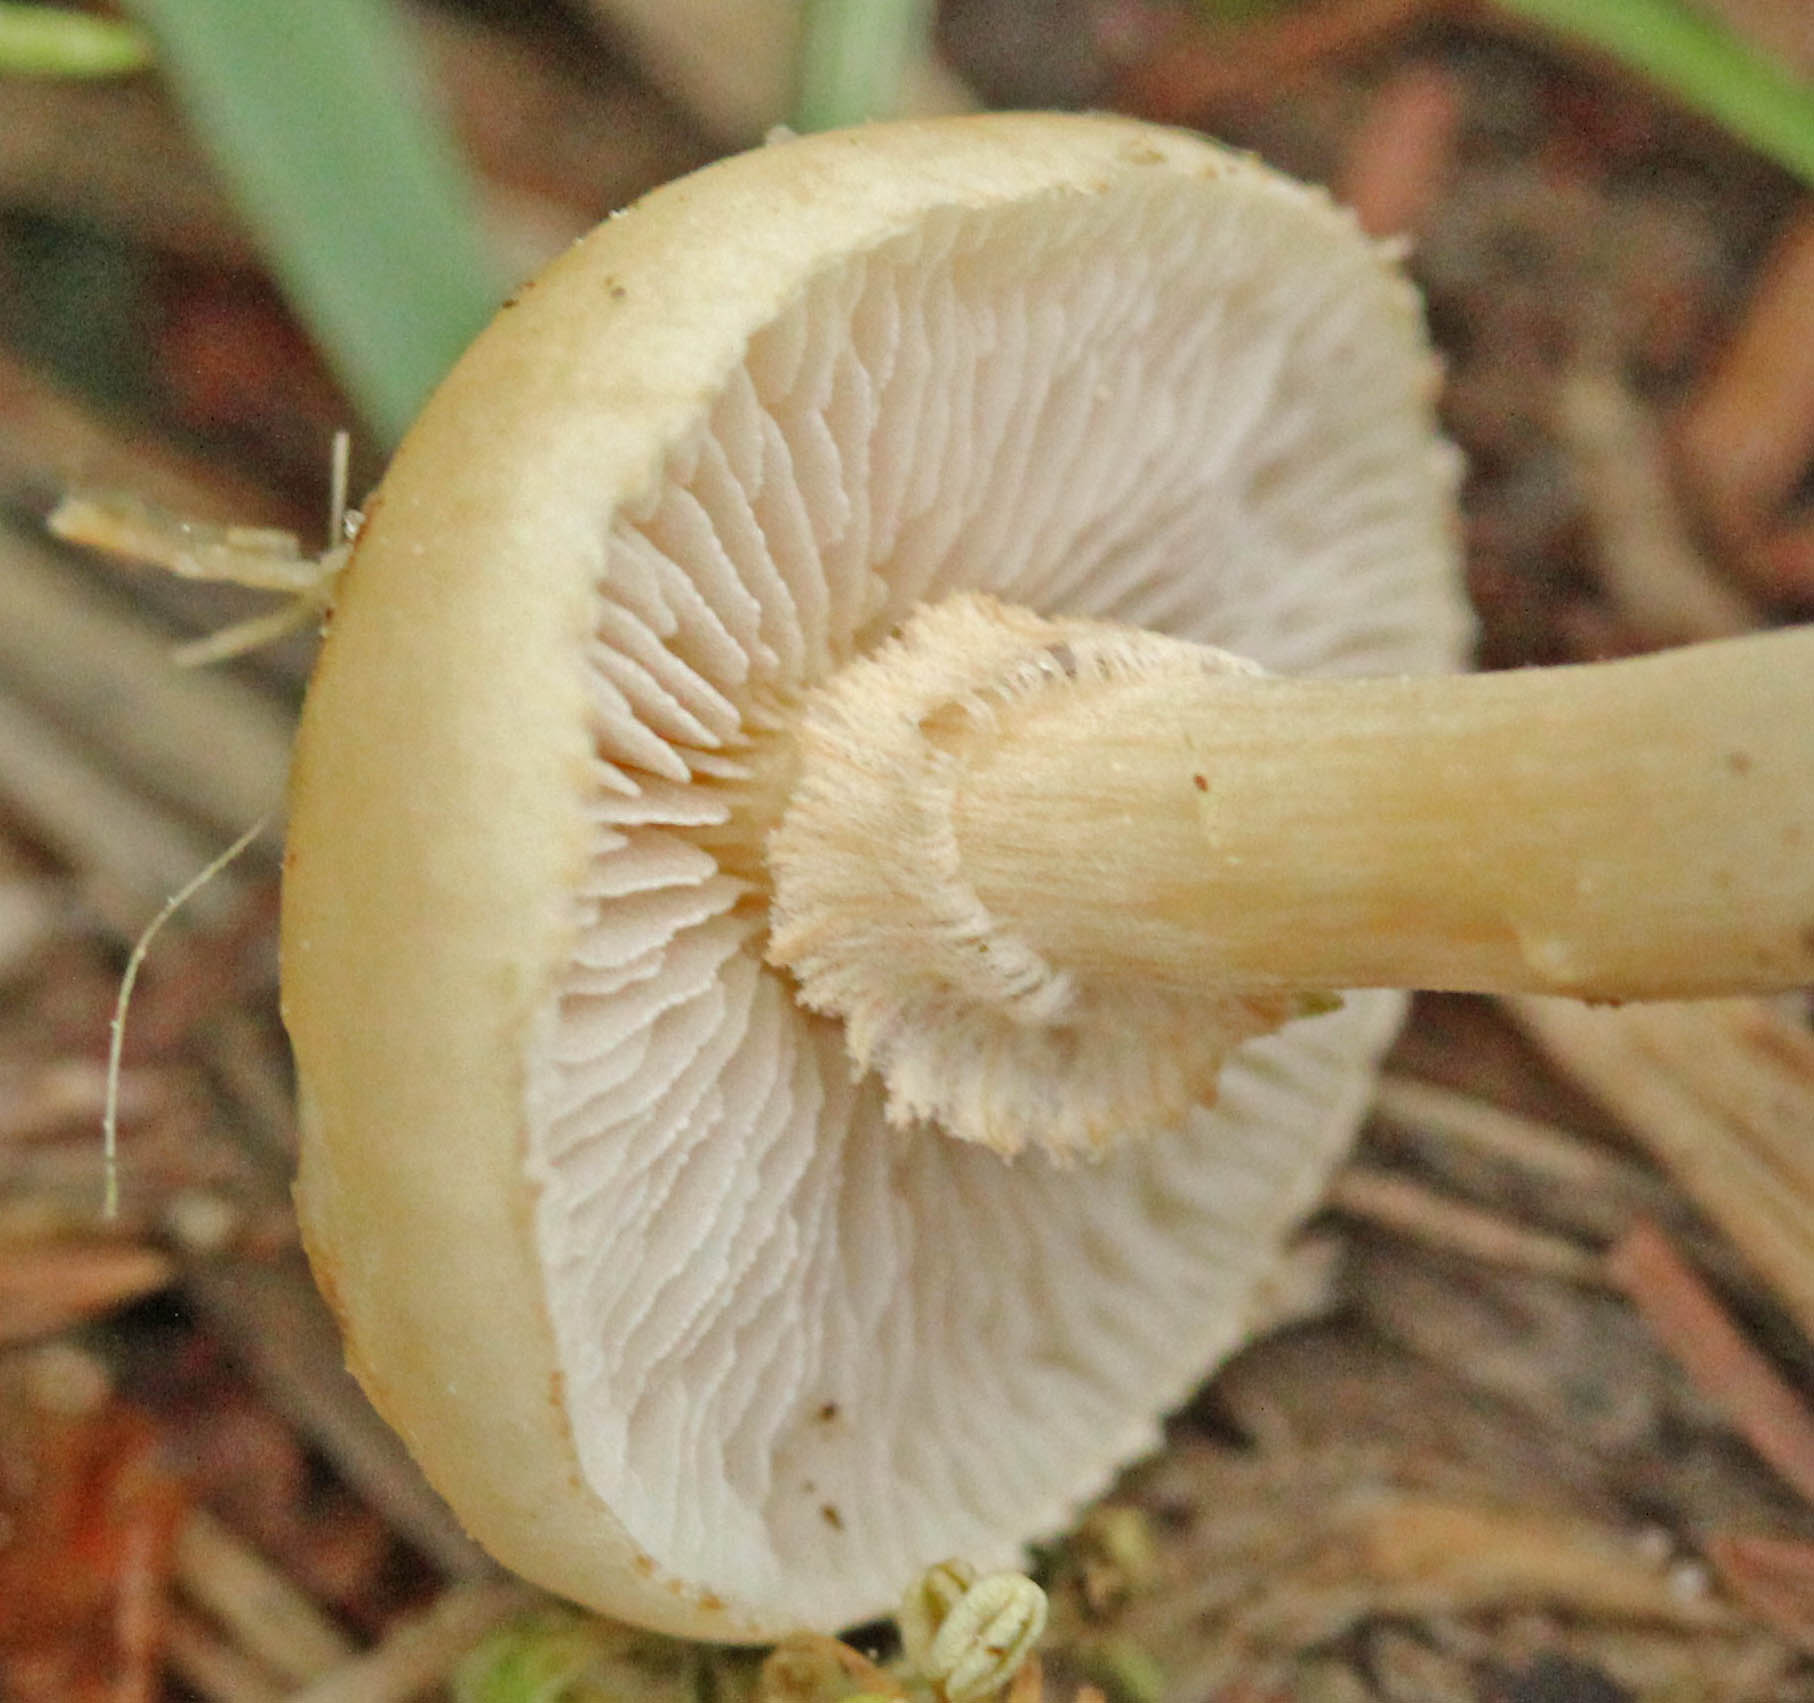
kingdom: Fungi
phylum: Basidiomycota
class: Agaricomycetes
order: Agaricales
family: Strophariaceae
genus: Agrocybe
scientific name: Agrocybe praecox
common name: tidlig agerhat
